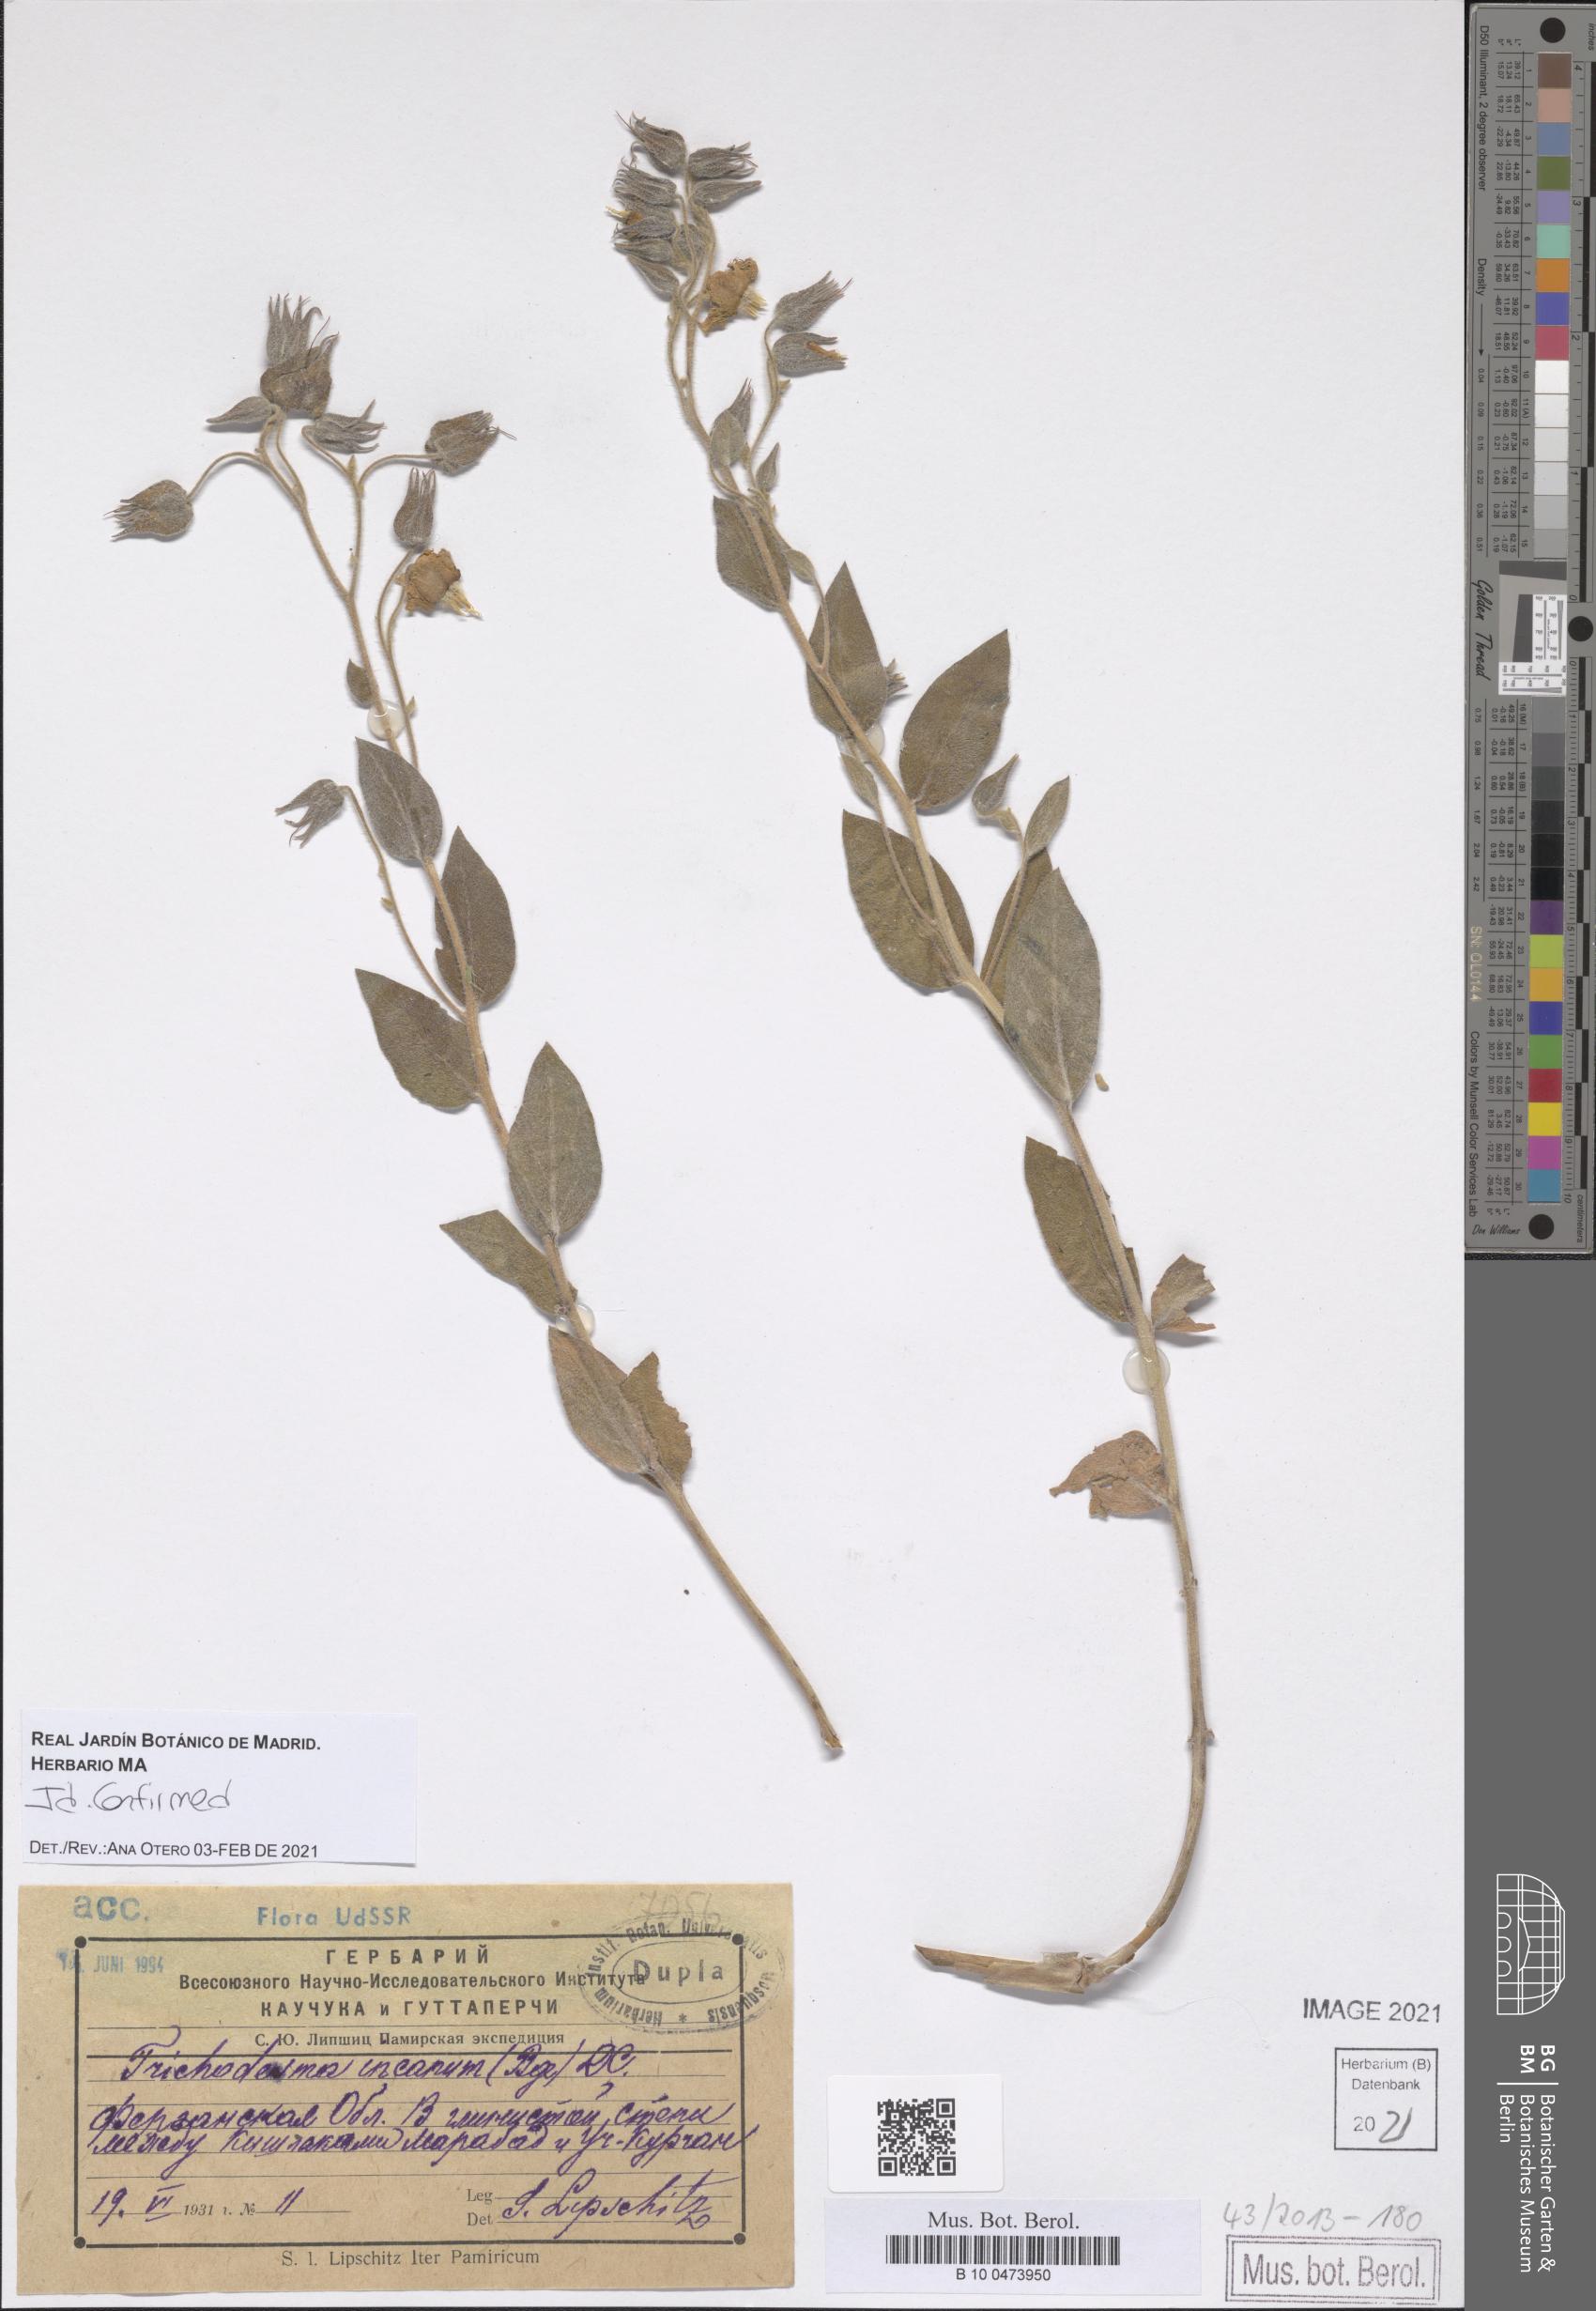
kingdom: Plantae
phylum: Tracheophyta
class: Magnoliopsida
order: Boraginales
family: Boraginaceae
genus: Trichodesma
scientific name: Trichodesma incanum
